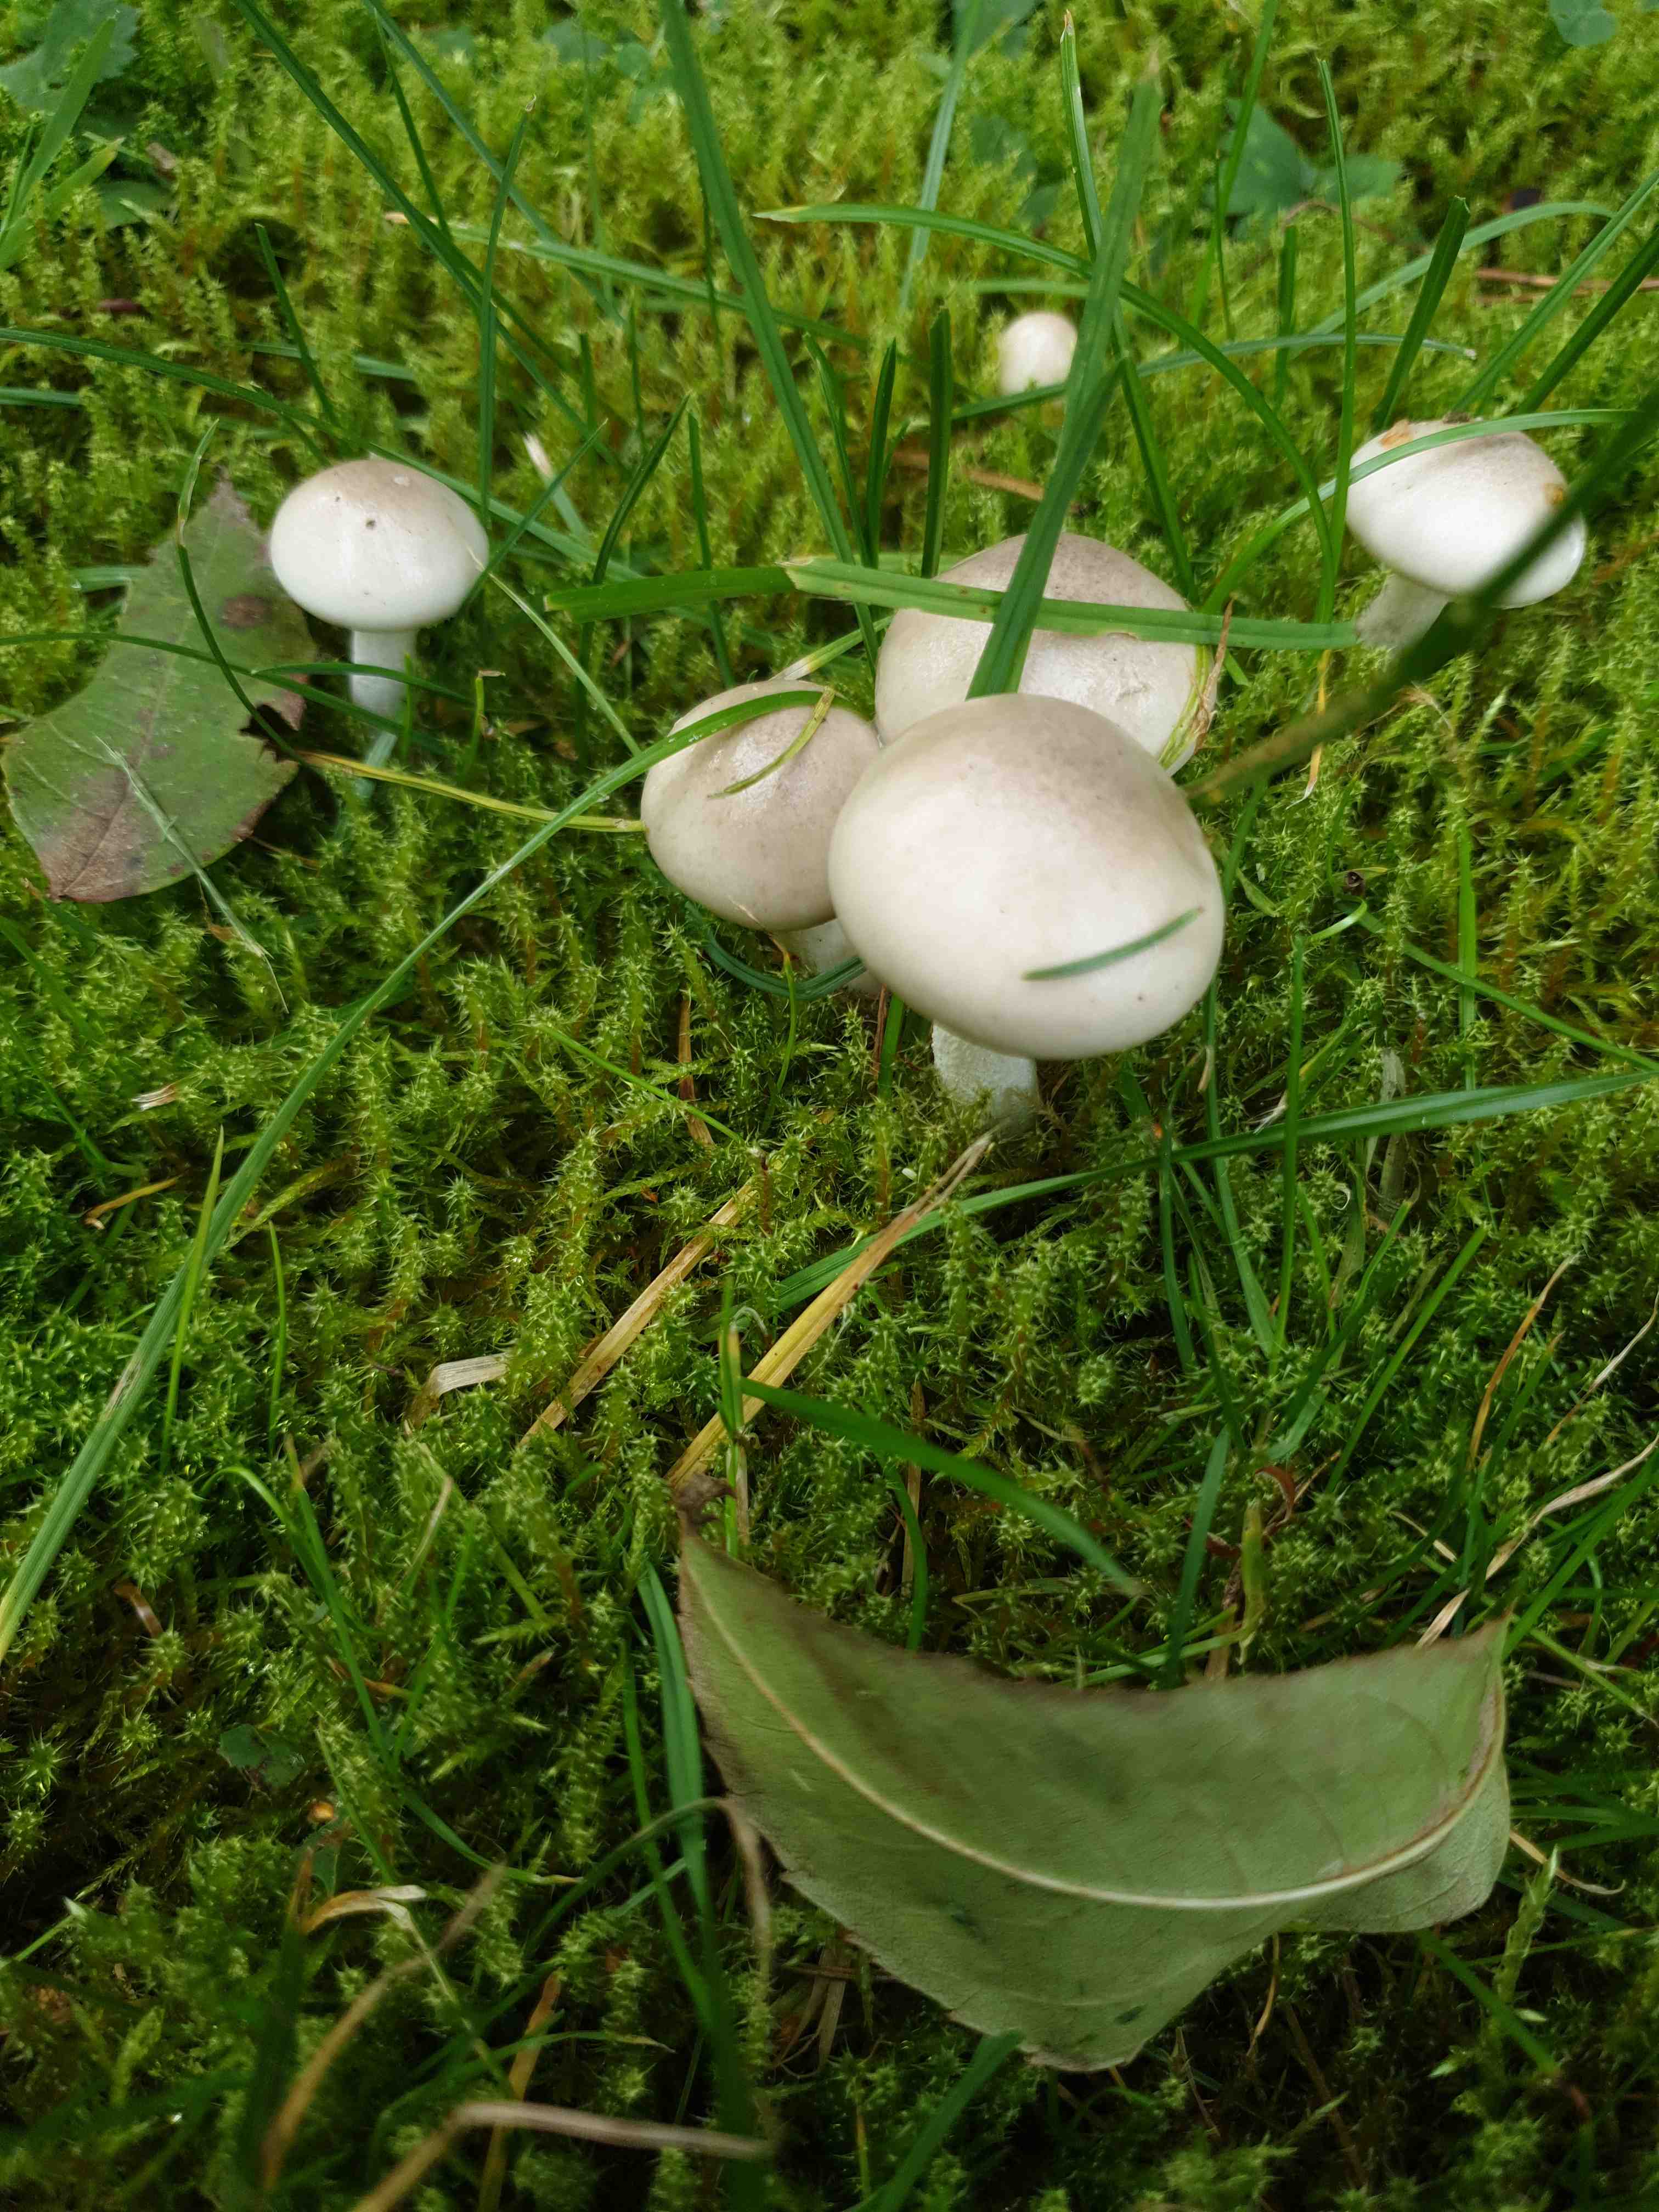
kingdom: Fungi
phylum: Basidiomycota
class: Agaricomycetes
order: Agaricales
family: Hygrophoraceae
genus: Hygrophorus
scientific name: Hygrophorus agathosmus
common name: vellugtende sneglehat
